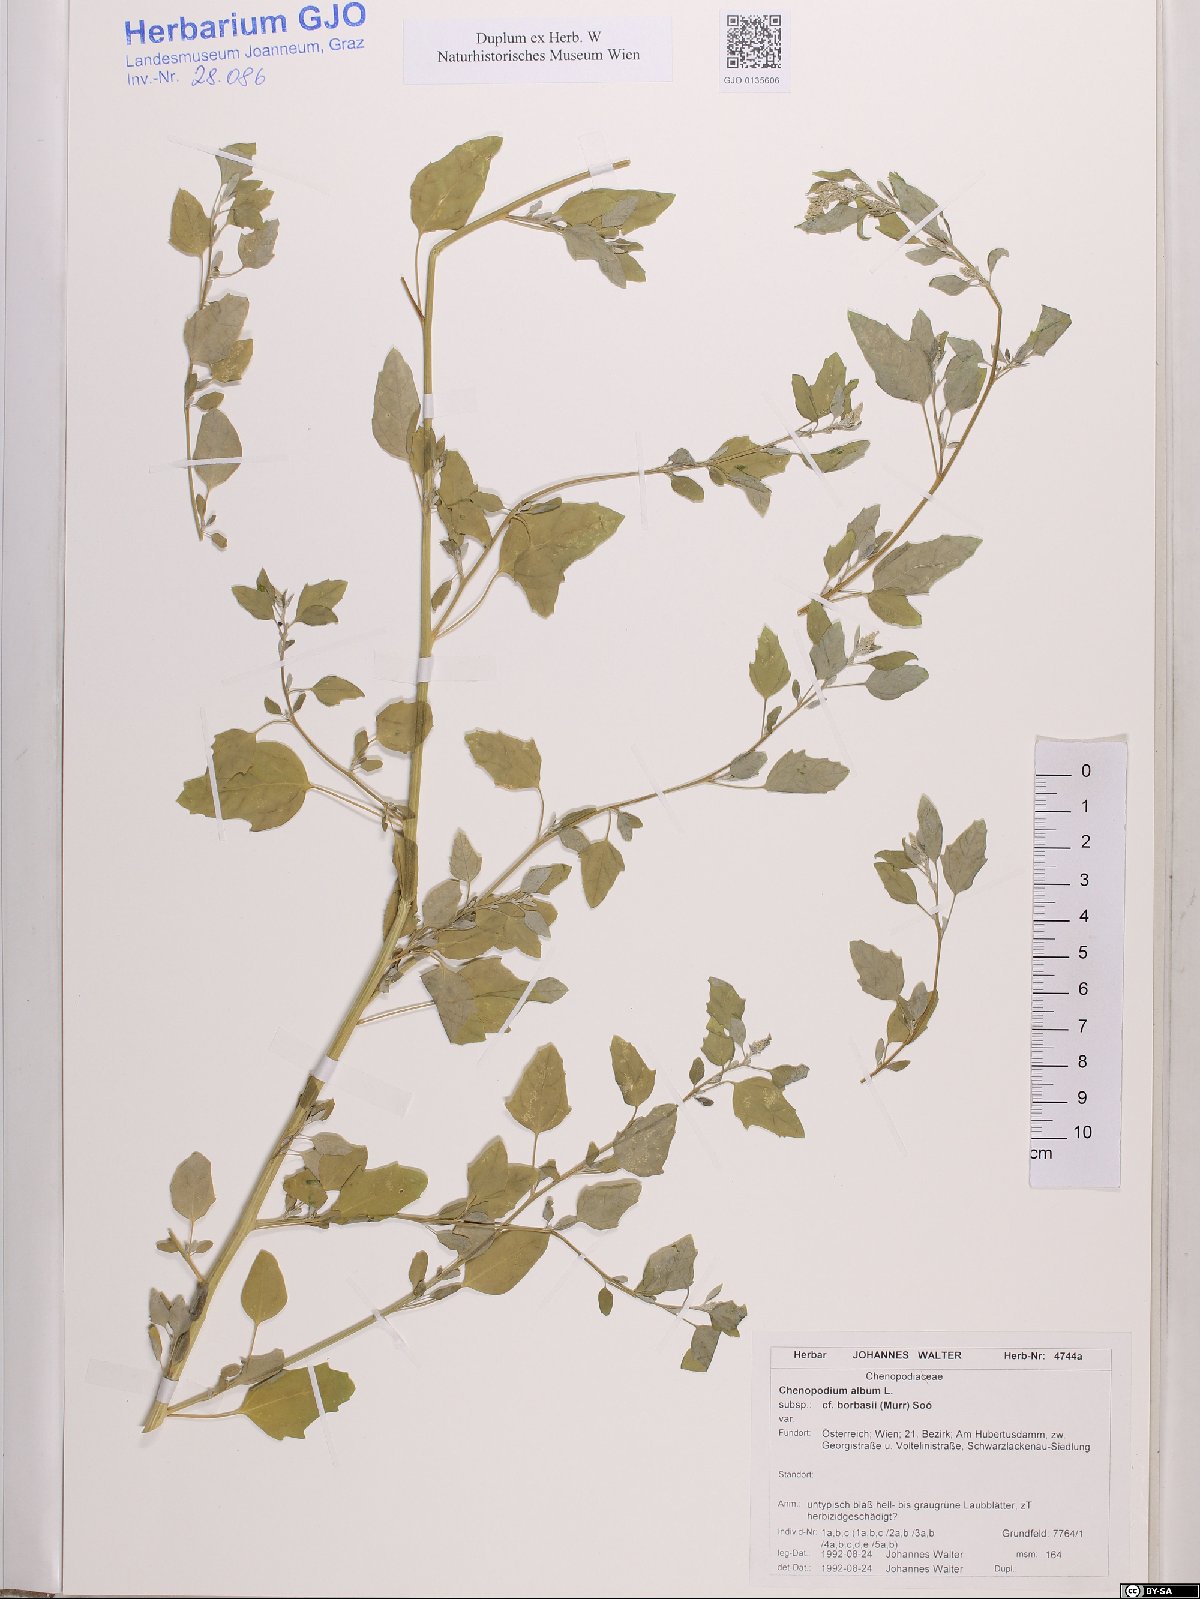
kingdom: Plantae
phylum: Tracheophyta
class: Magnoliopsida
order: Caryophyllales
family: Amaranthaceae
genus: Chenopodium
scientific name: Chenopodium borbasii
